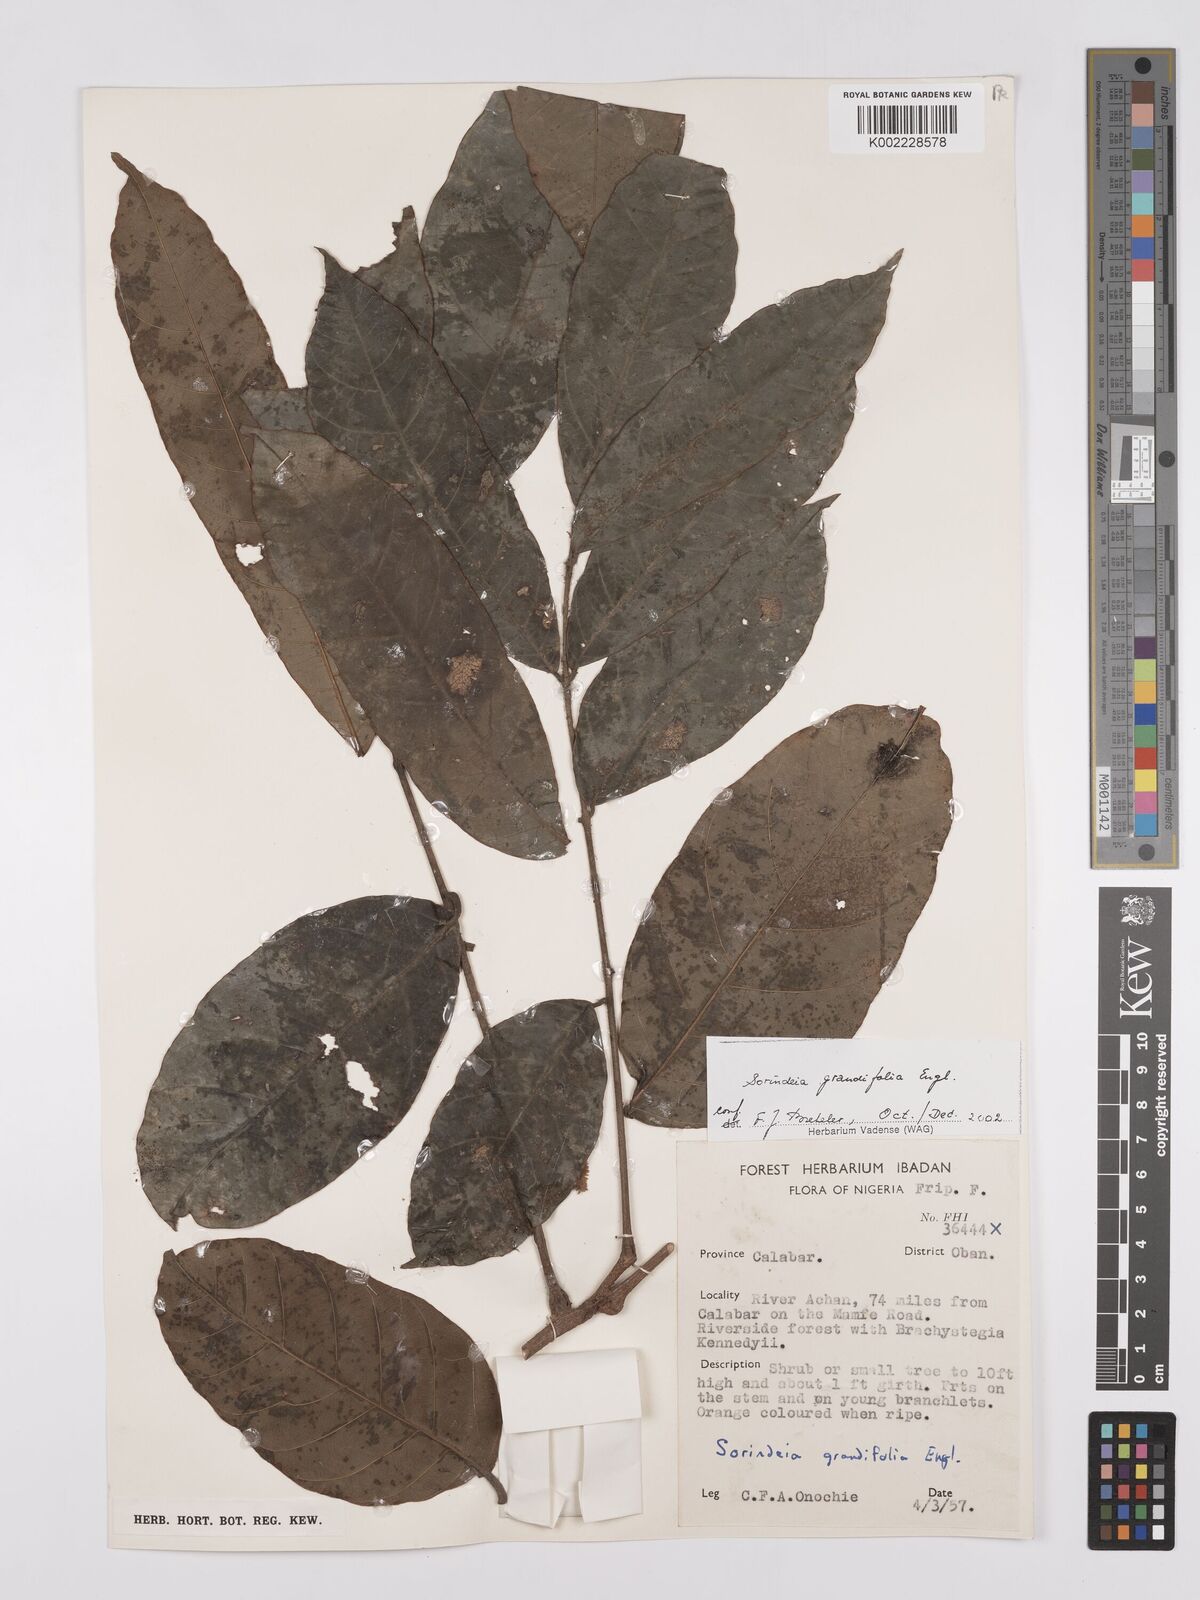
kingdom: Plantae
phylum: Tracheophyta
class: Magnoliopsida
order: Sapindales
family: Anacardiaceae
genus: Sorindeia
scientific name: Sorindeia grandifolia
